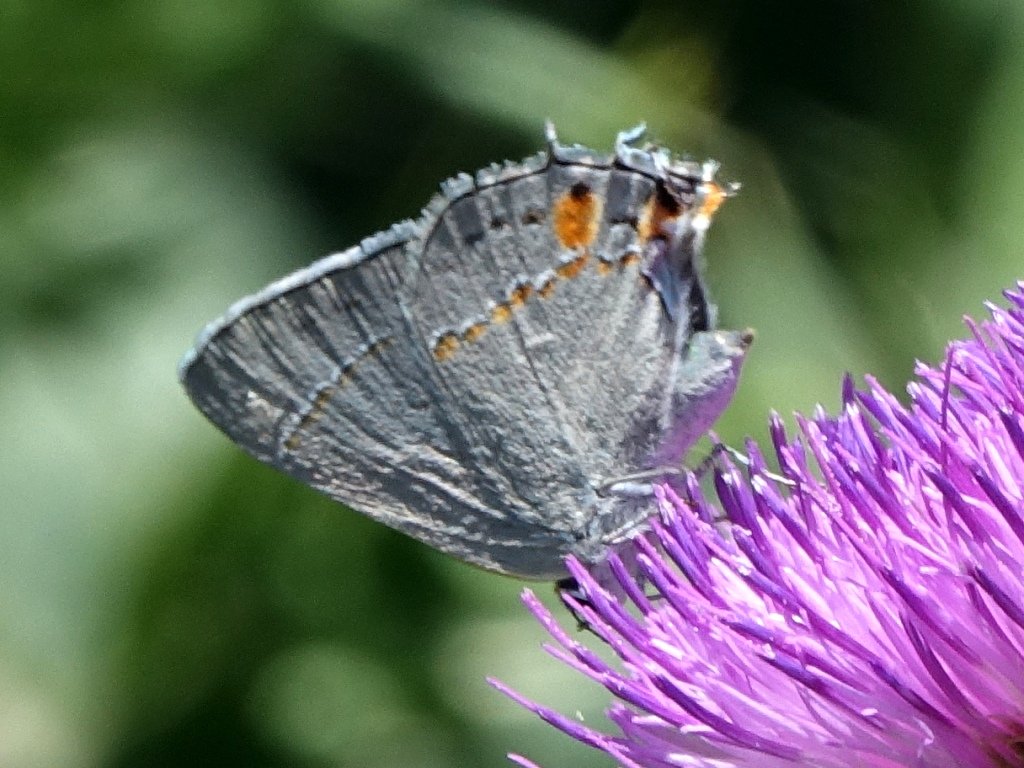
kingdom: Animalia
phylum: Arthropoda
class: Insecta
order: Lepidoptera
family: Lycaenidae
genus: Strymon
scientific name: Strymon melinus
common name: Gray Hairstreak
